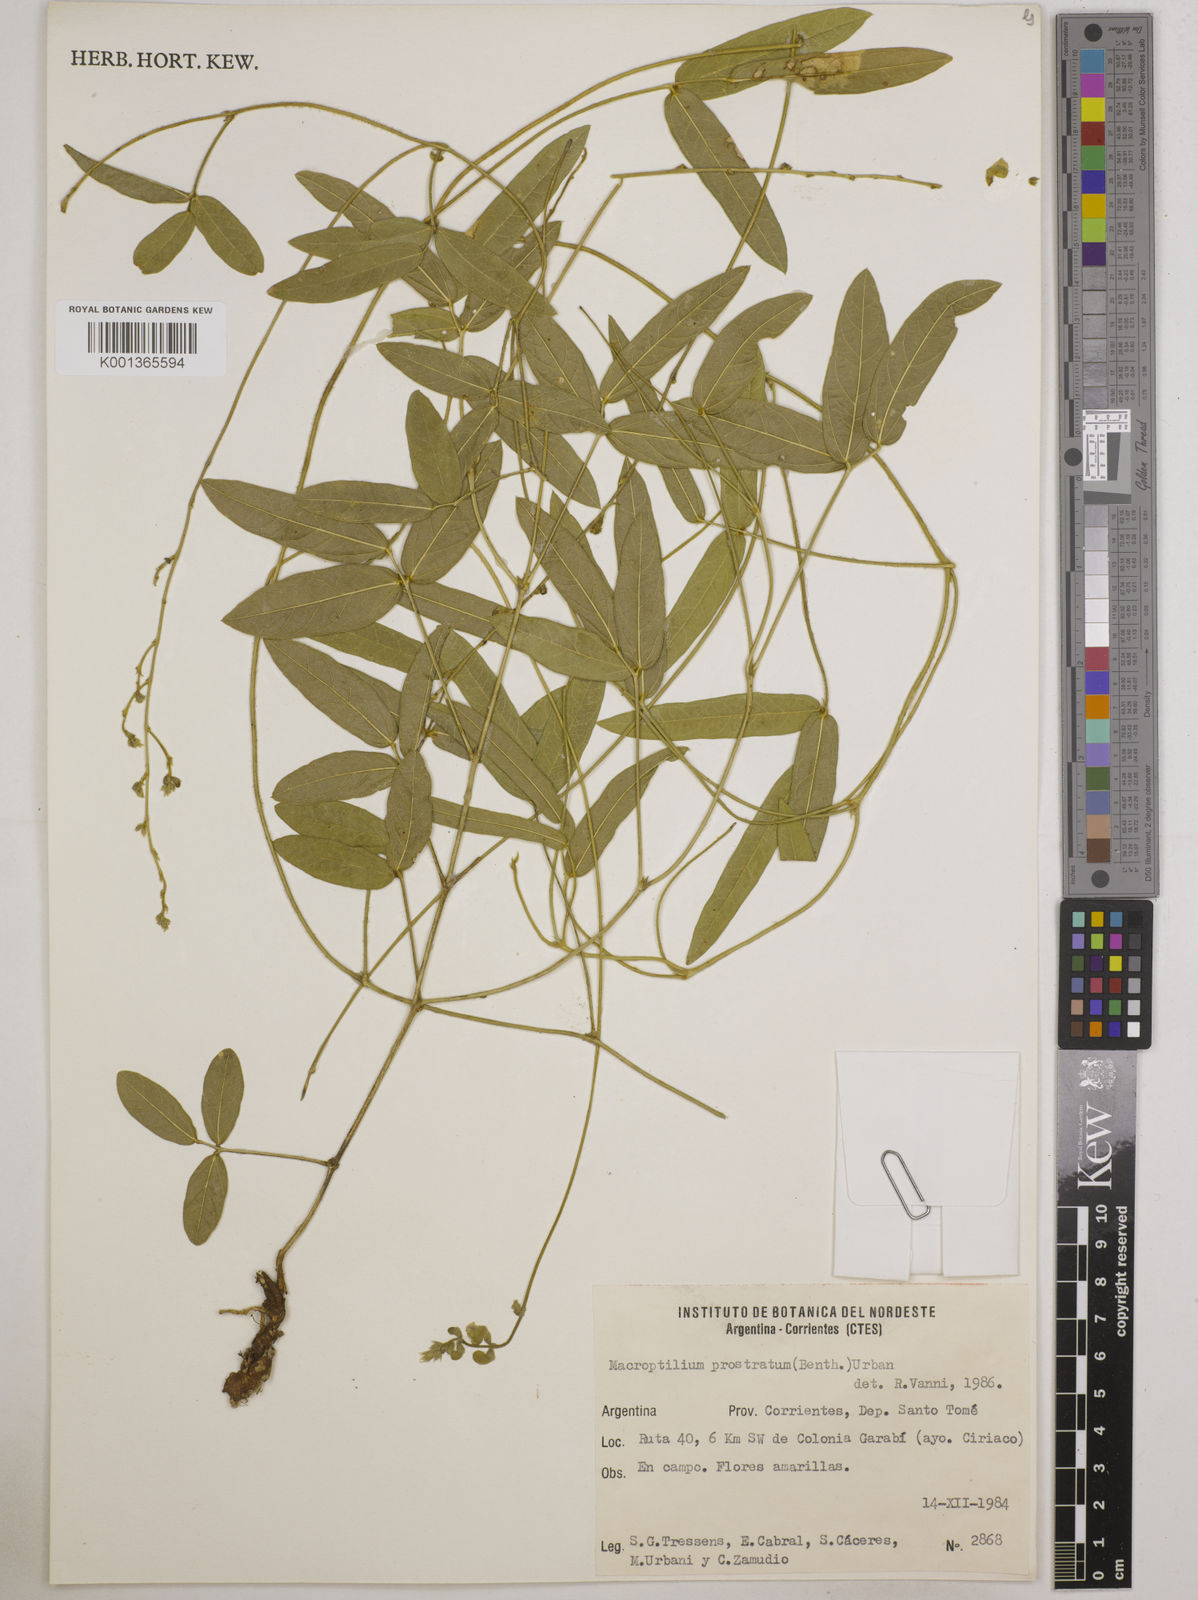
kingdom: Plantae
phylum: Tracheophyta
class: Magnoliopsida
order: Fabales
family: Fabaceae
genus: Macroptilium
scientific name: Macroptilium prostratum
